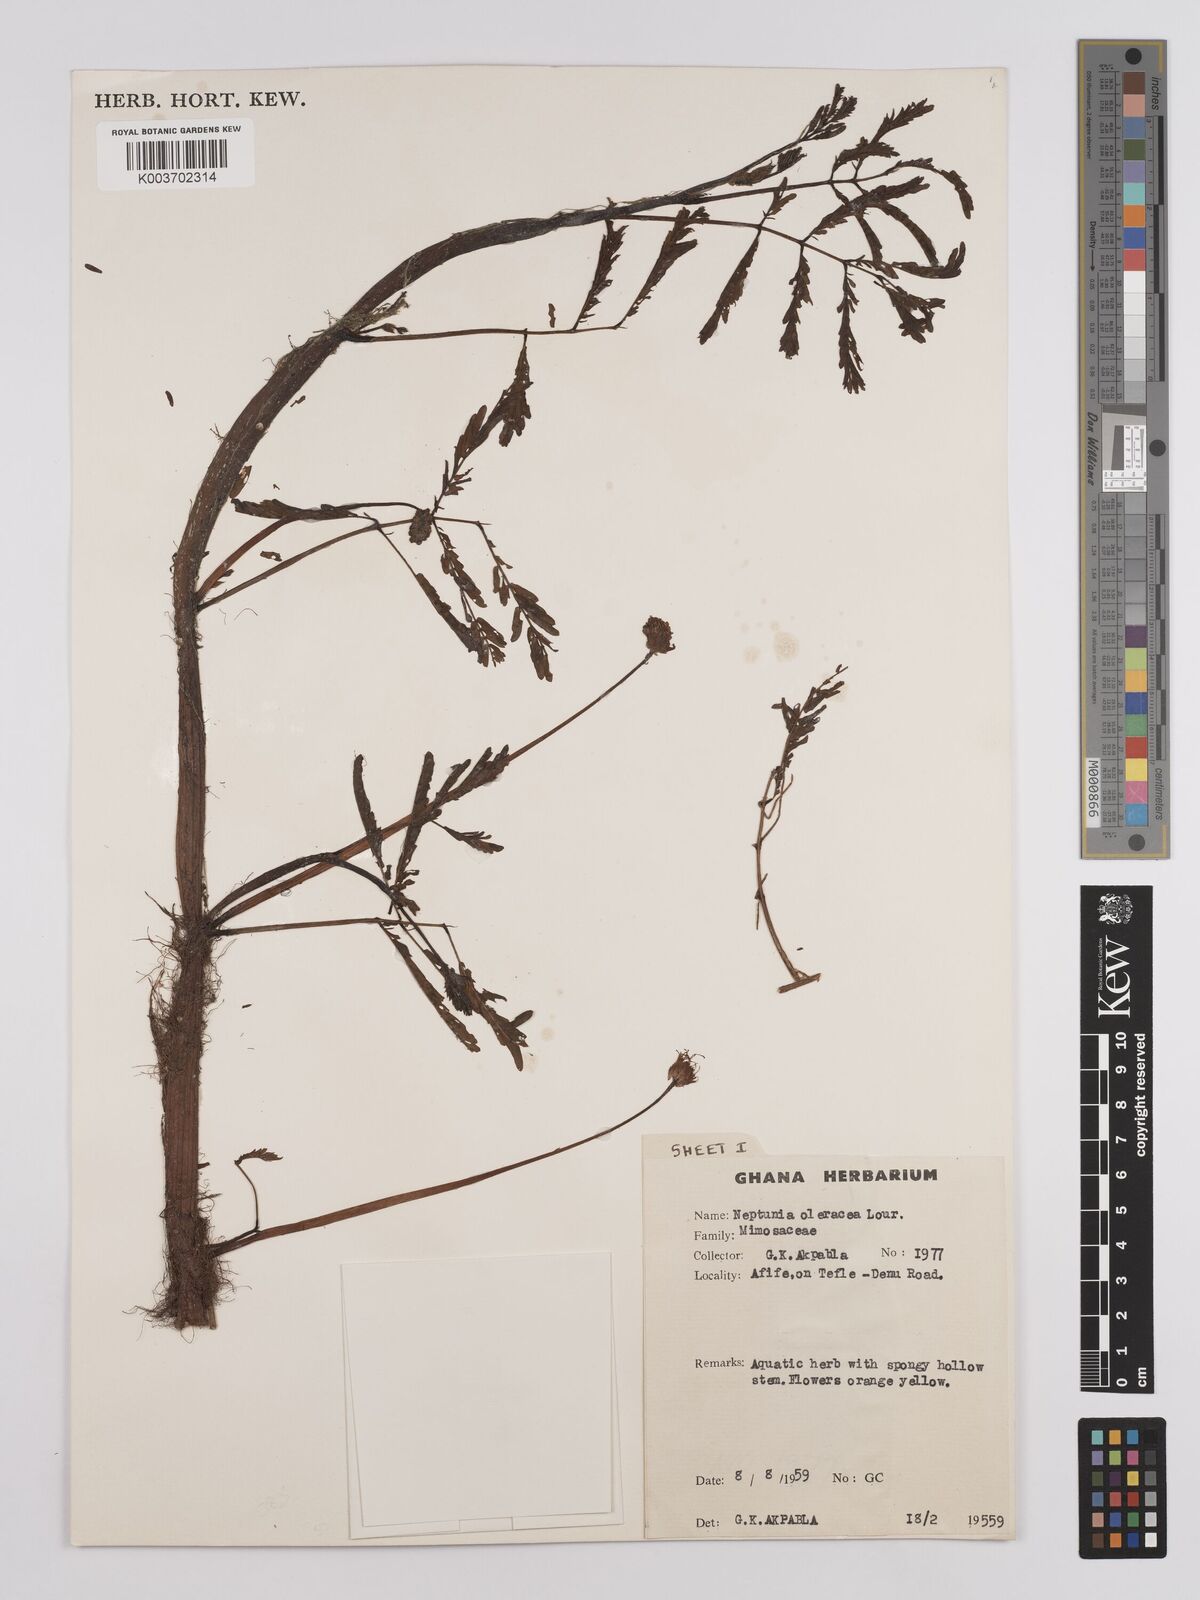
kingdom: Plantae
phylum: Tracheophyta
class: Magnoliopsida
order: Fabales
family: Fabaceae
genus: Neptunia
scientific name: Neptunia prostrata
